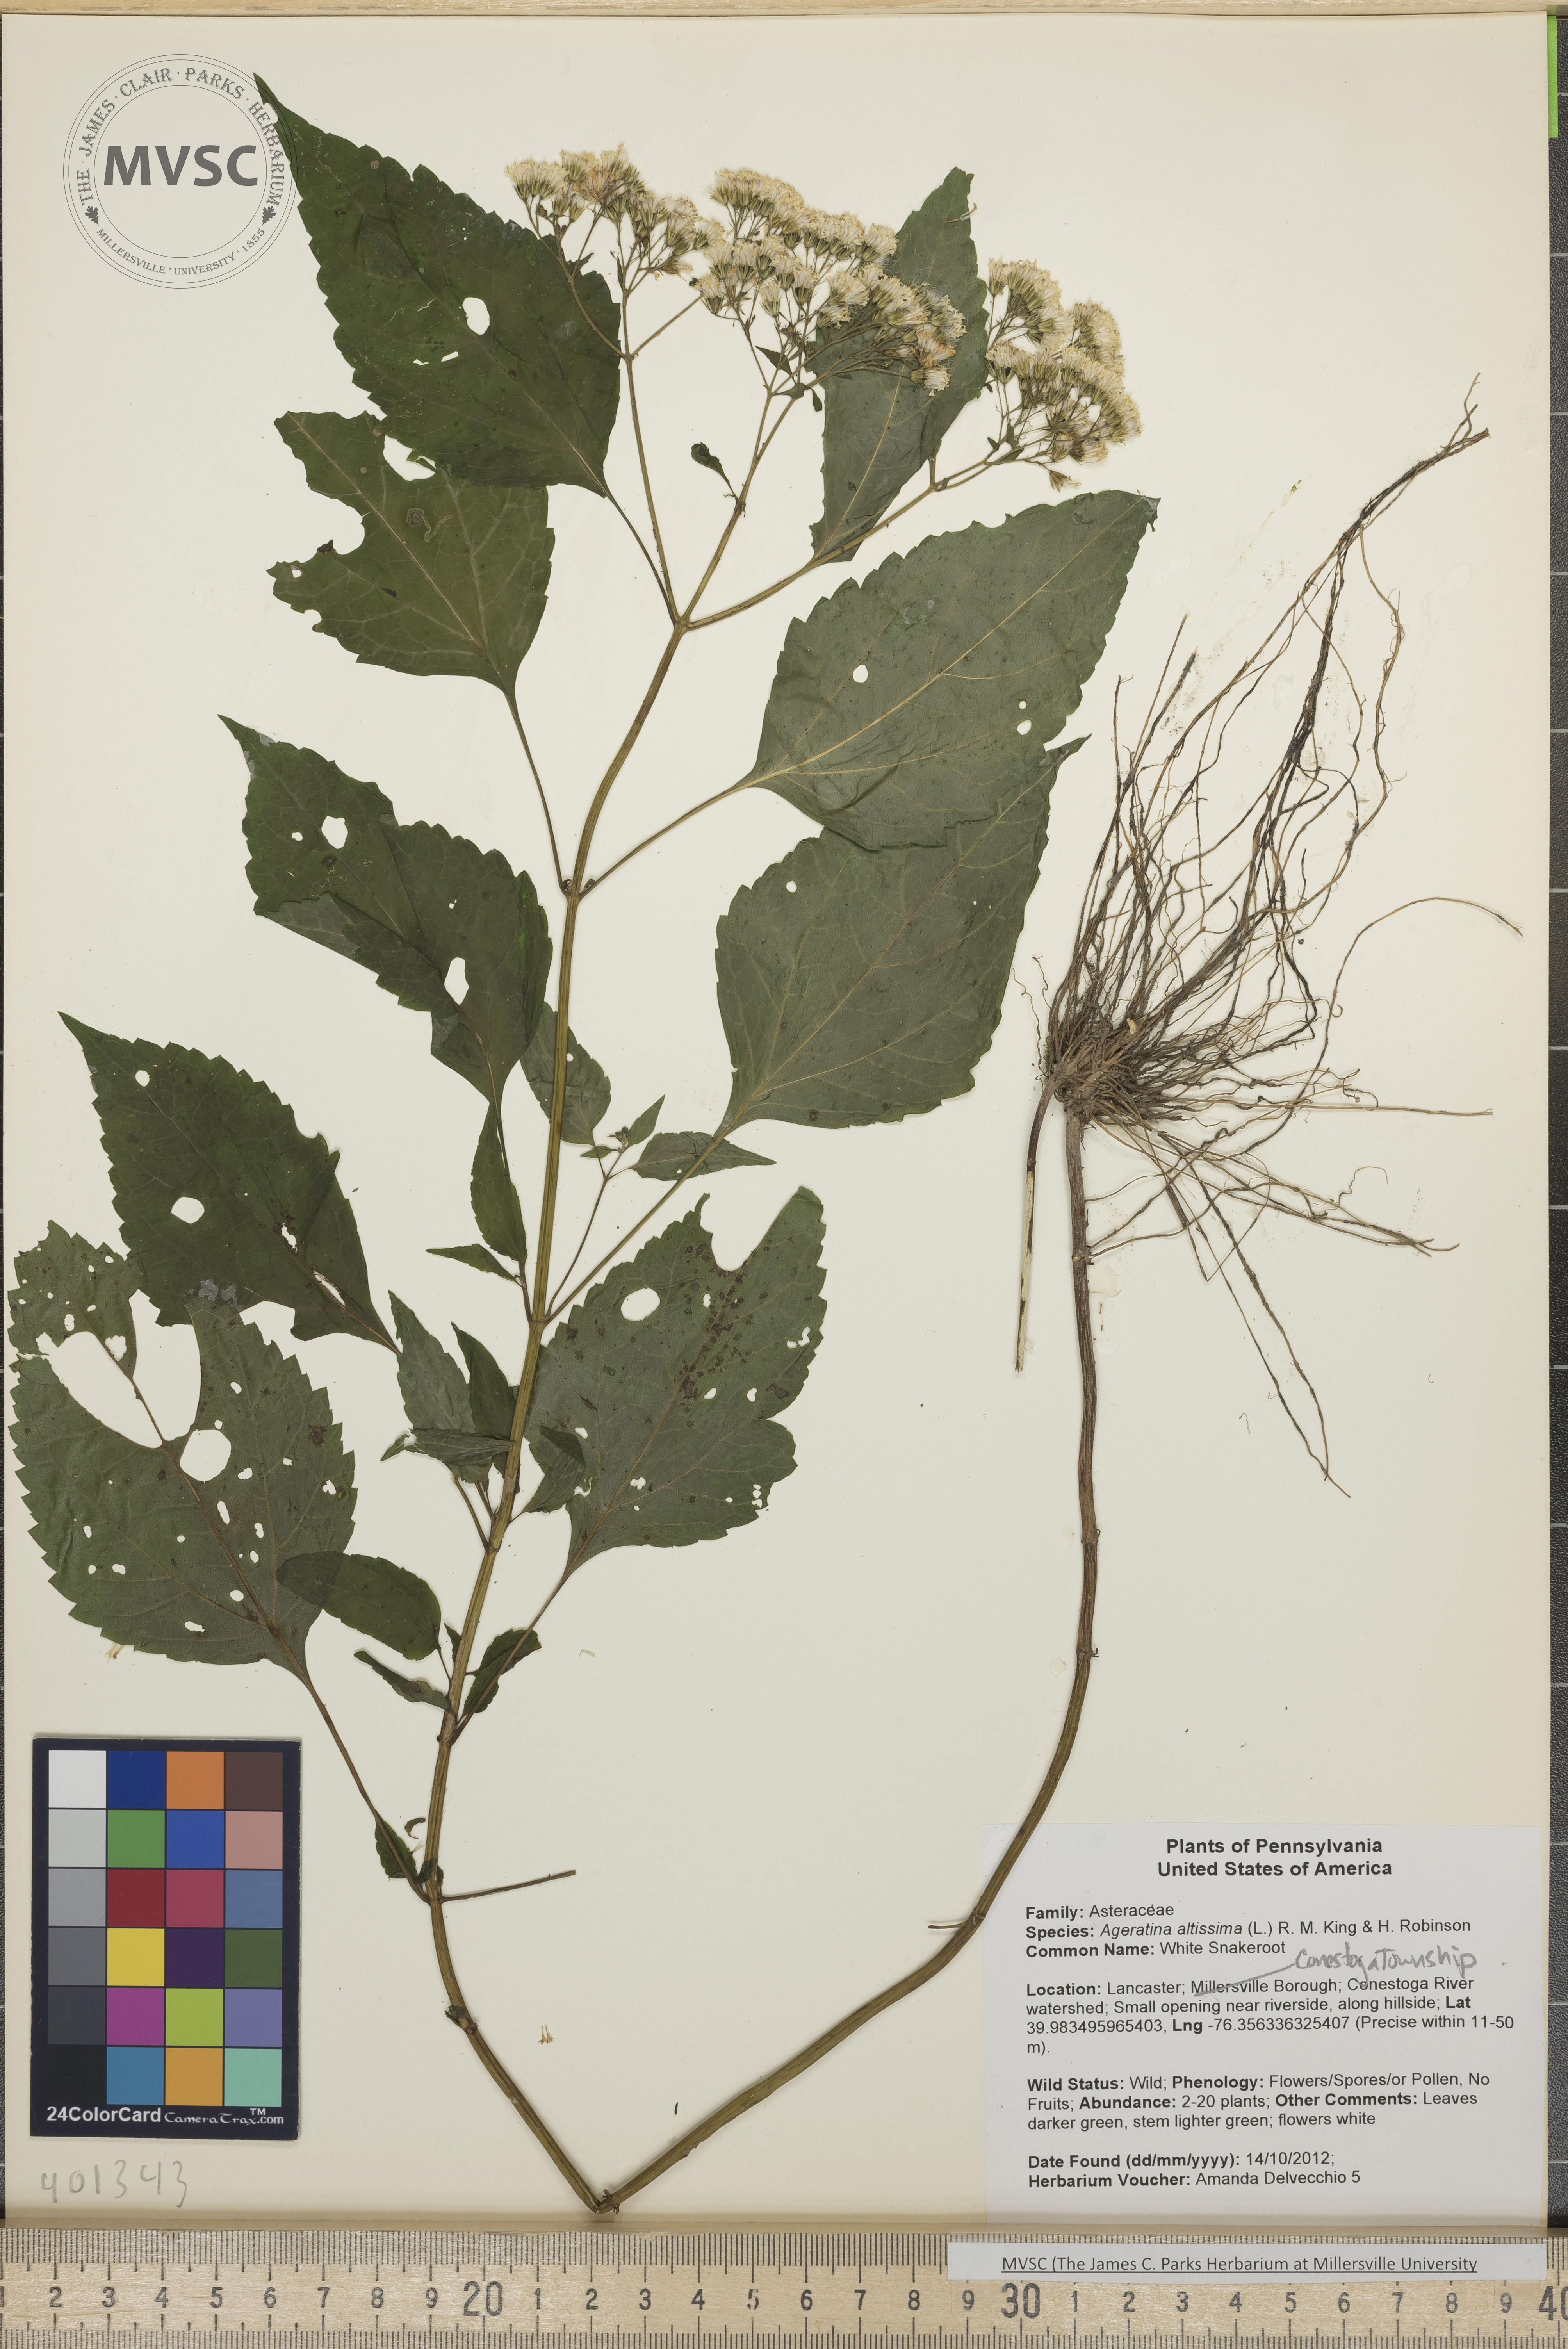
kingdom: Plantae
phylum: Tracheophyta
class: Magnoliopsida
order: Asterales
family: Asteraceae
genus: Ageratina
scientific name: Ageratina altissima
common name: White Snakeroot
